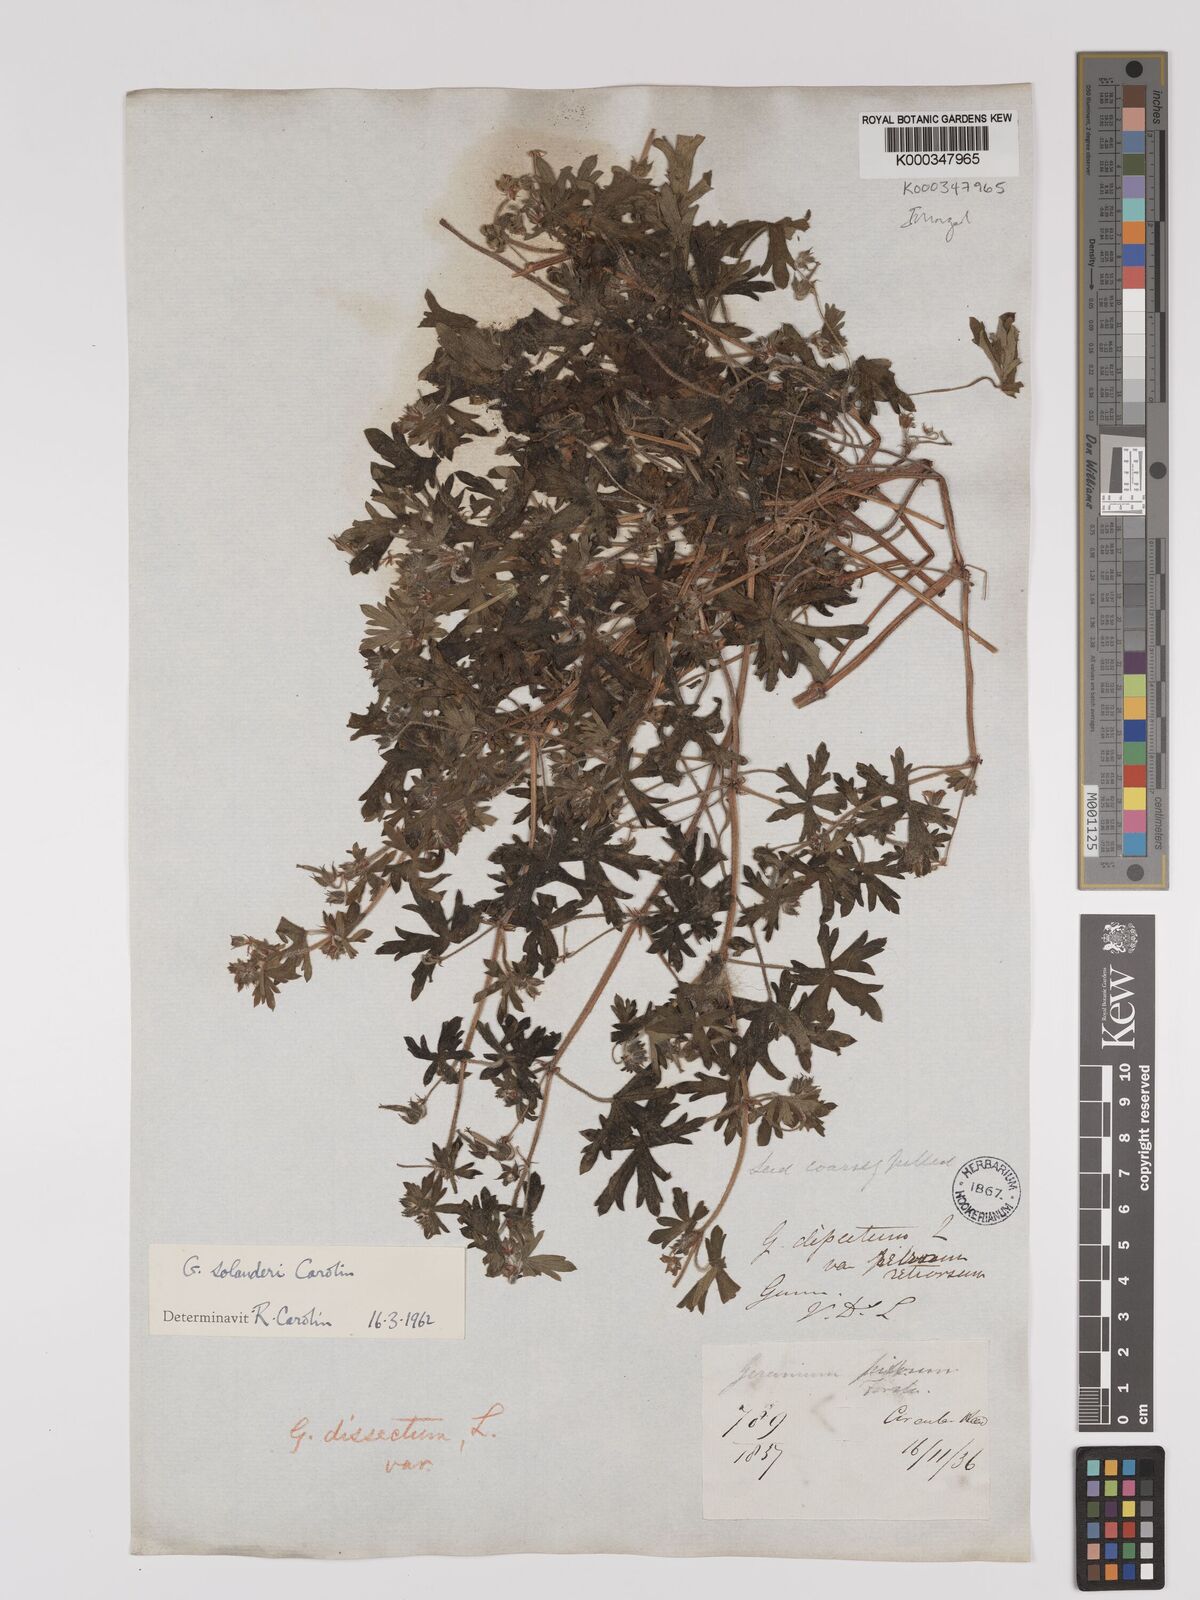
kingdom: Plantae
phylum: Tracheophyta
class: Magnoliopsida
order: Geraniales
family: Geraniaceae
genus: Geranium
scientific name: Geranium solanderi
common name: Solander's geranium
